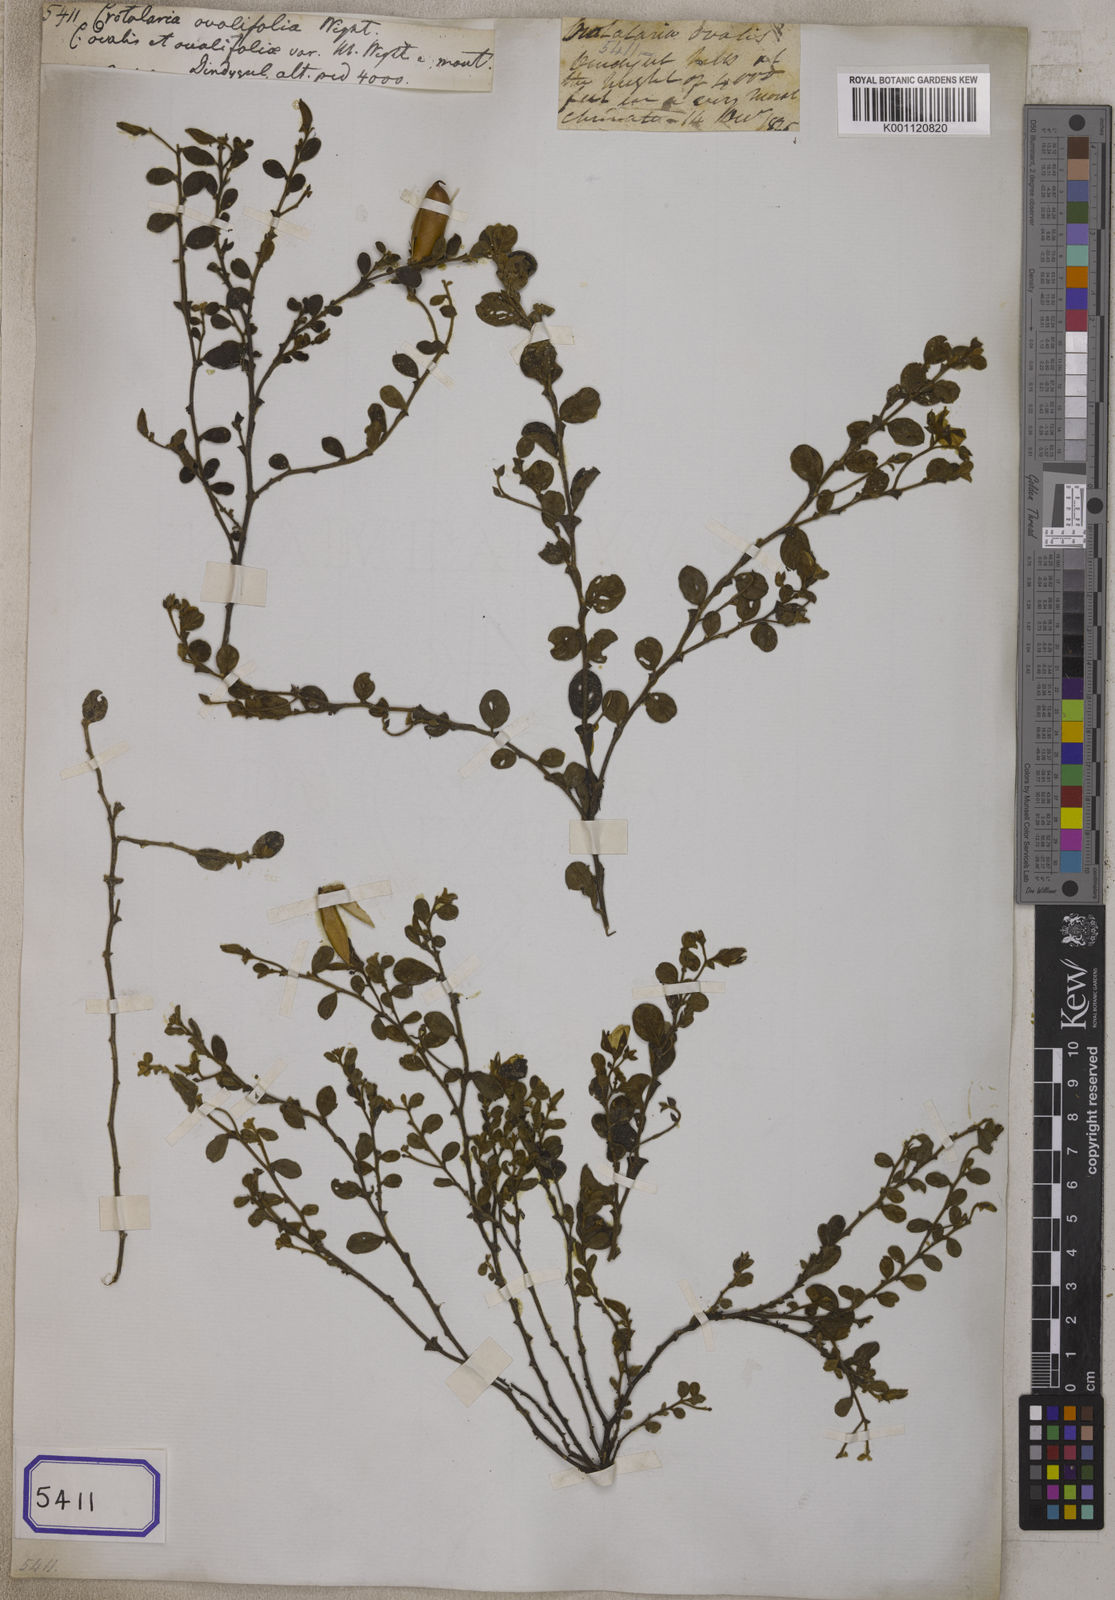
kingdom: Plantae
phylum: Tracheophyta
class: Magnoliopsida
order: Fabales
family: Fabaceae
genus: Crotalaria
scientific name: Crotalaria
